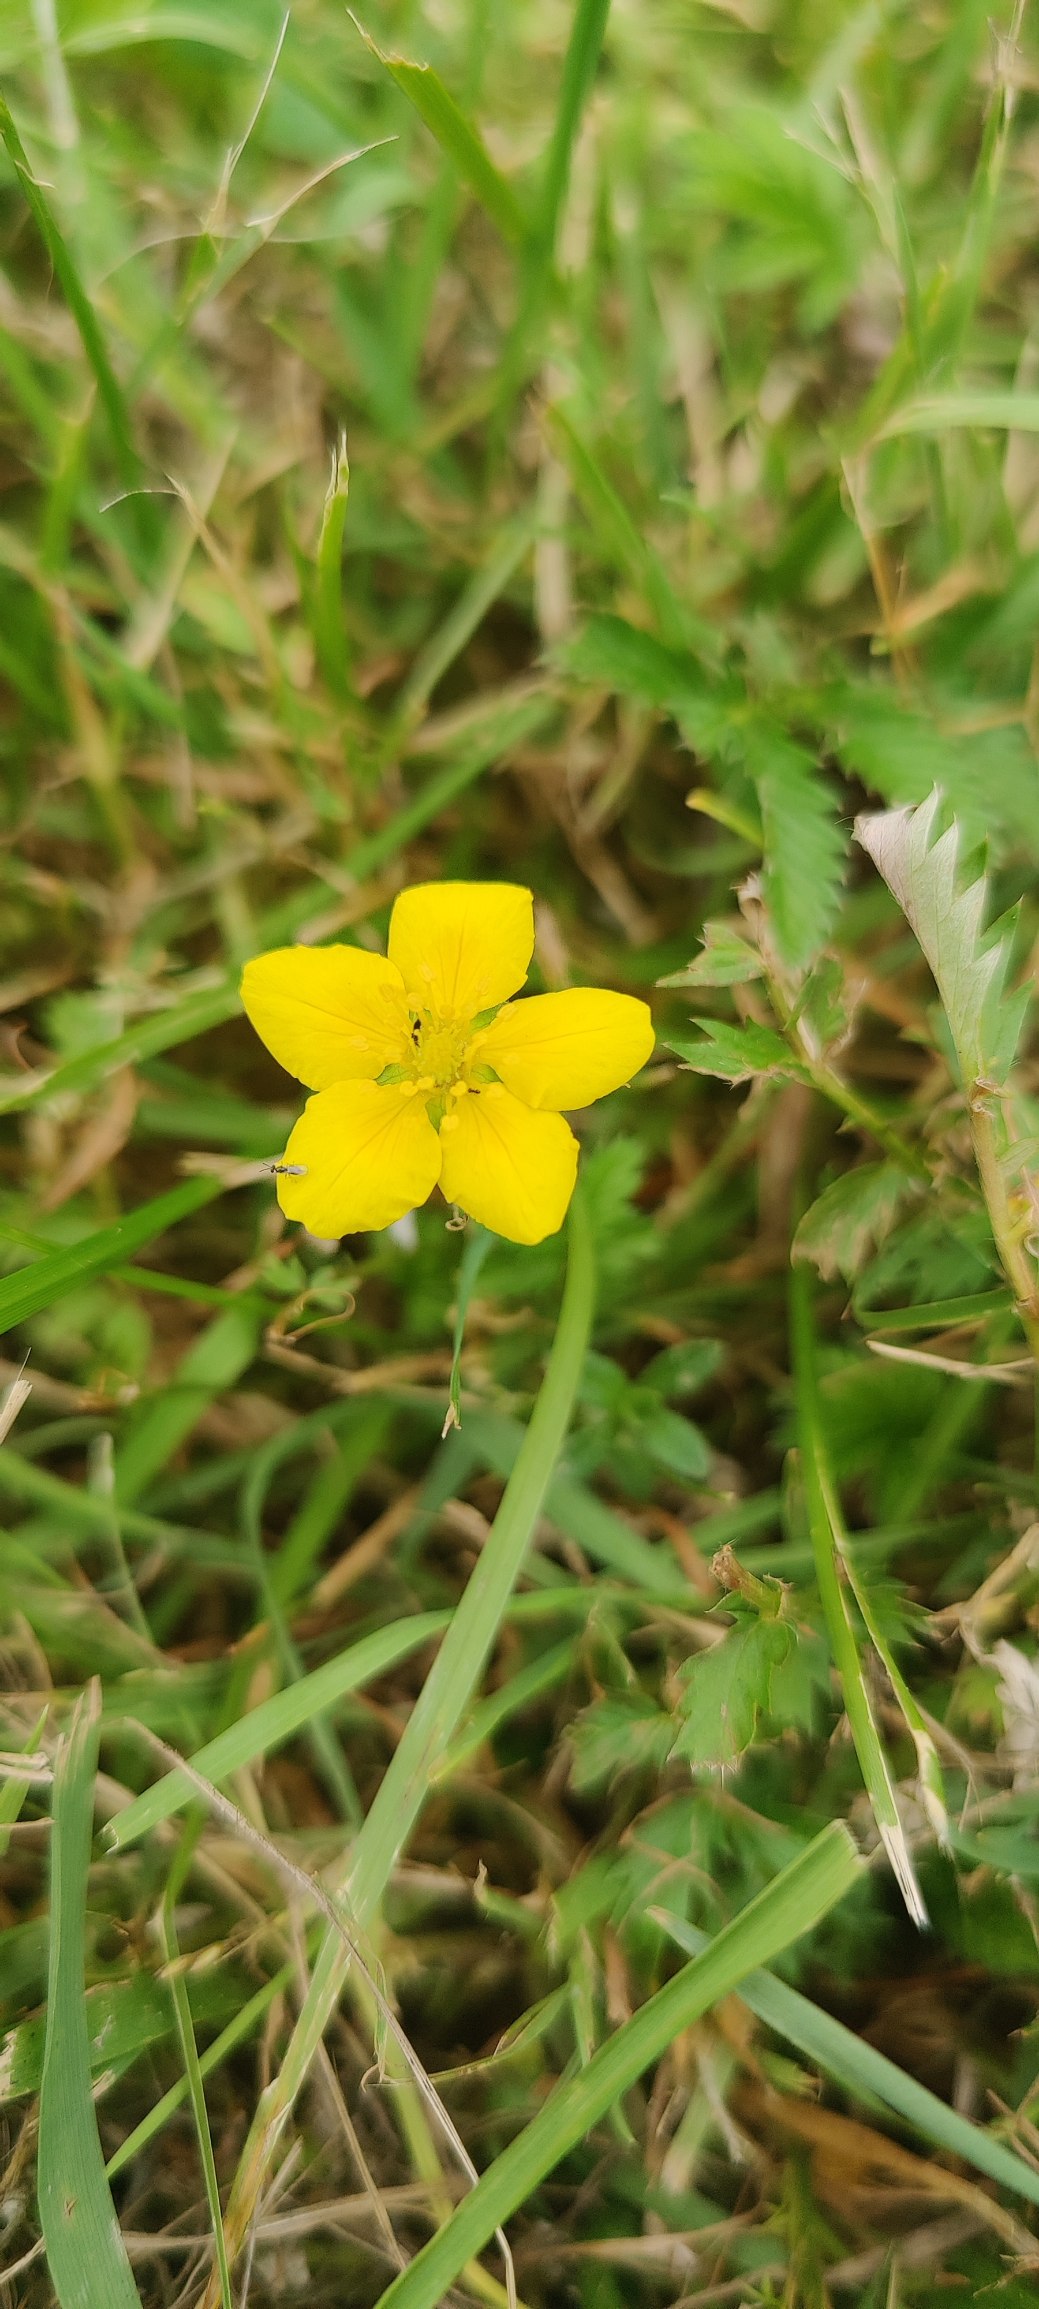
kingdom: Plantae
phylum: Tracheophyta
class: Magnoliopsida
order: Rosales
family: Rosaceae
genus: Argentina
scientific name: Argentina anserina
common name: Gåsepotentil
